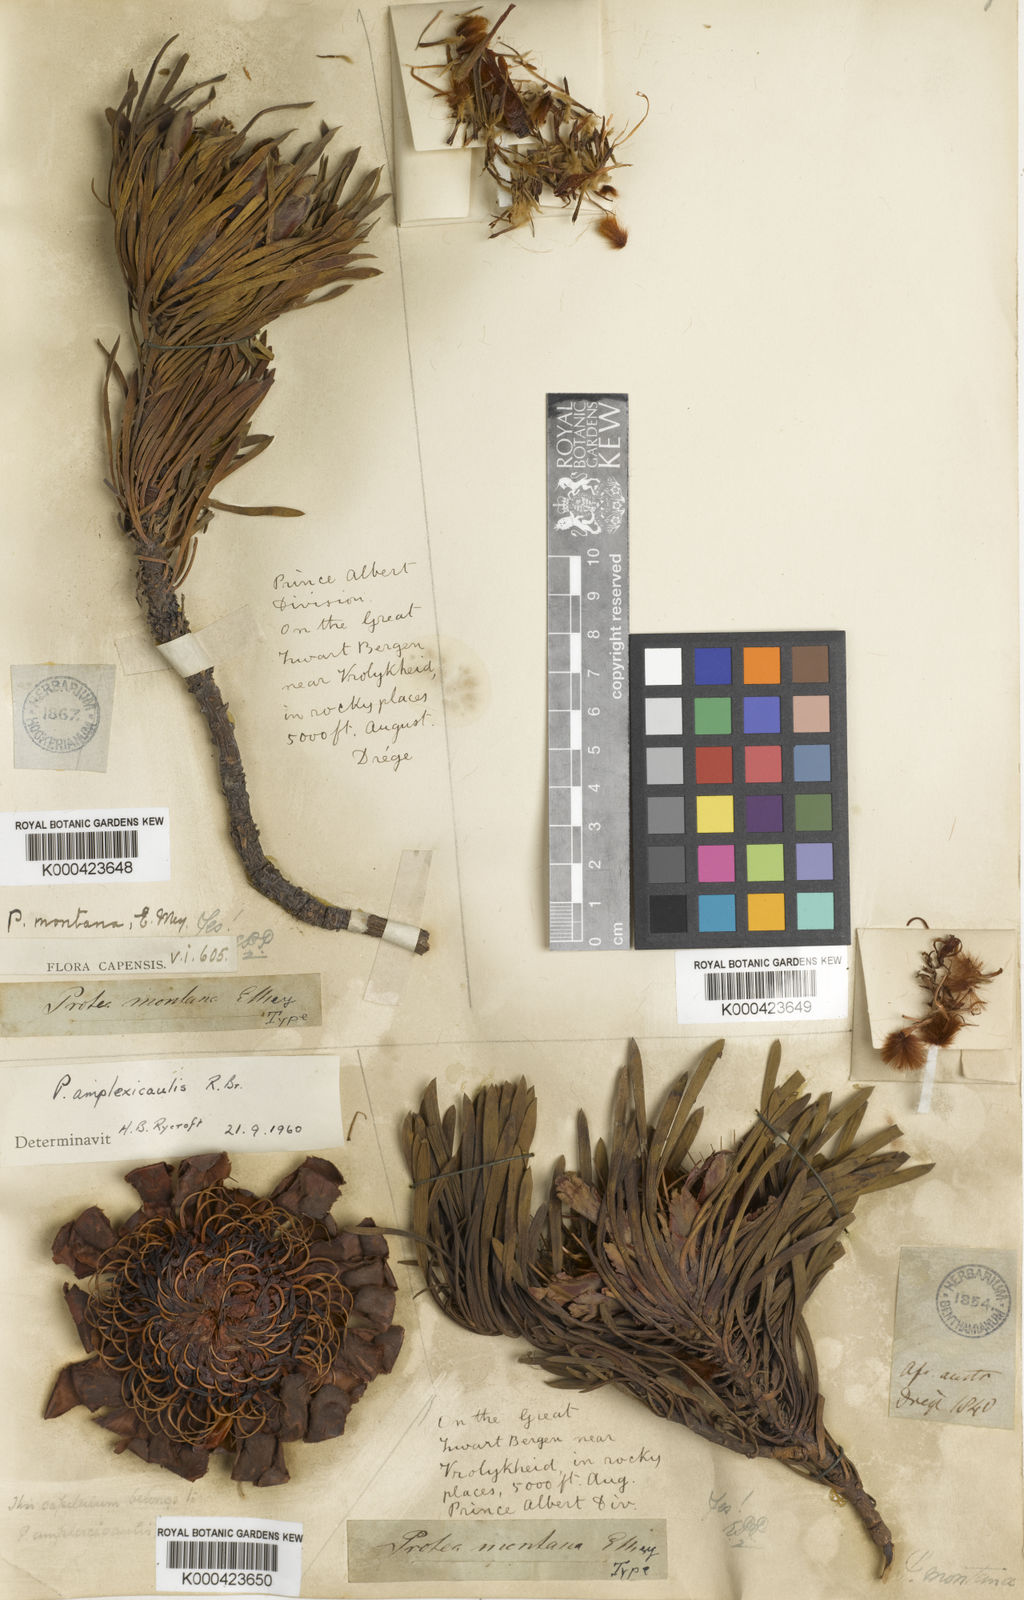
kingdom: Plantae
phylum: Tracheophyta
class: Magnoliopsida
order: Proteales
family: Proteaceae
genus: Protea
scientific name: Protea montana
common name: Swartberg sugarbush
